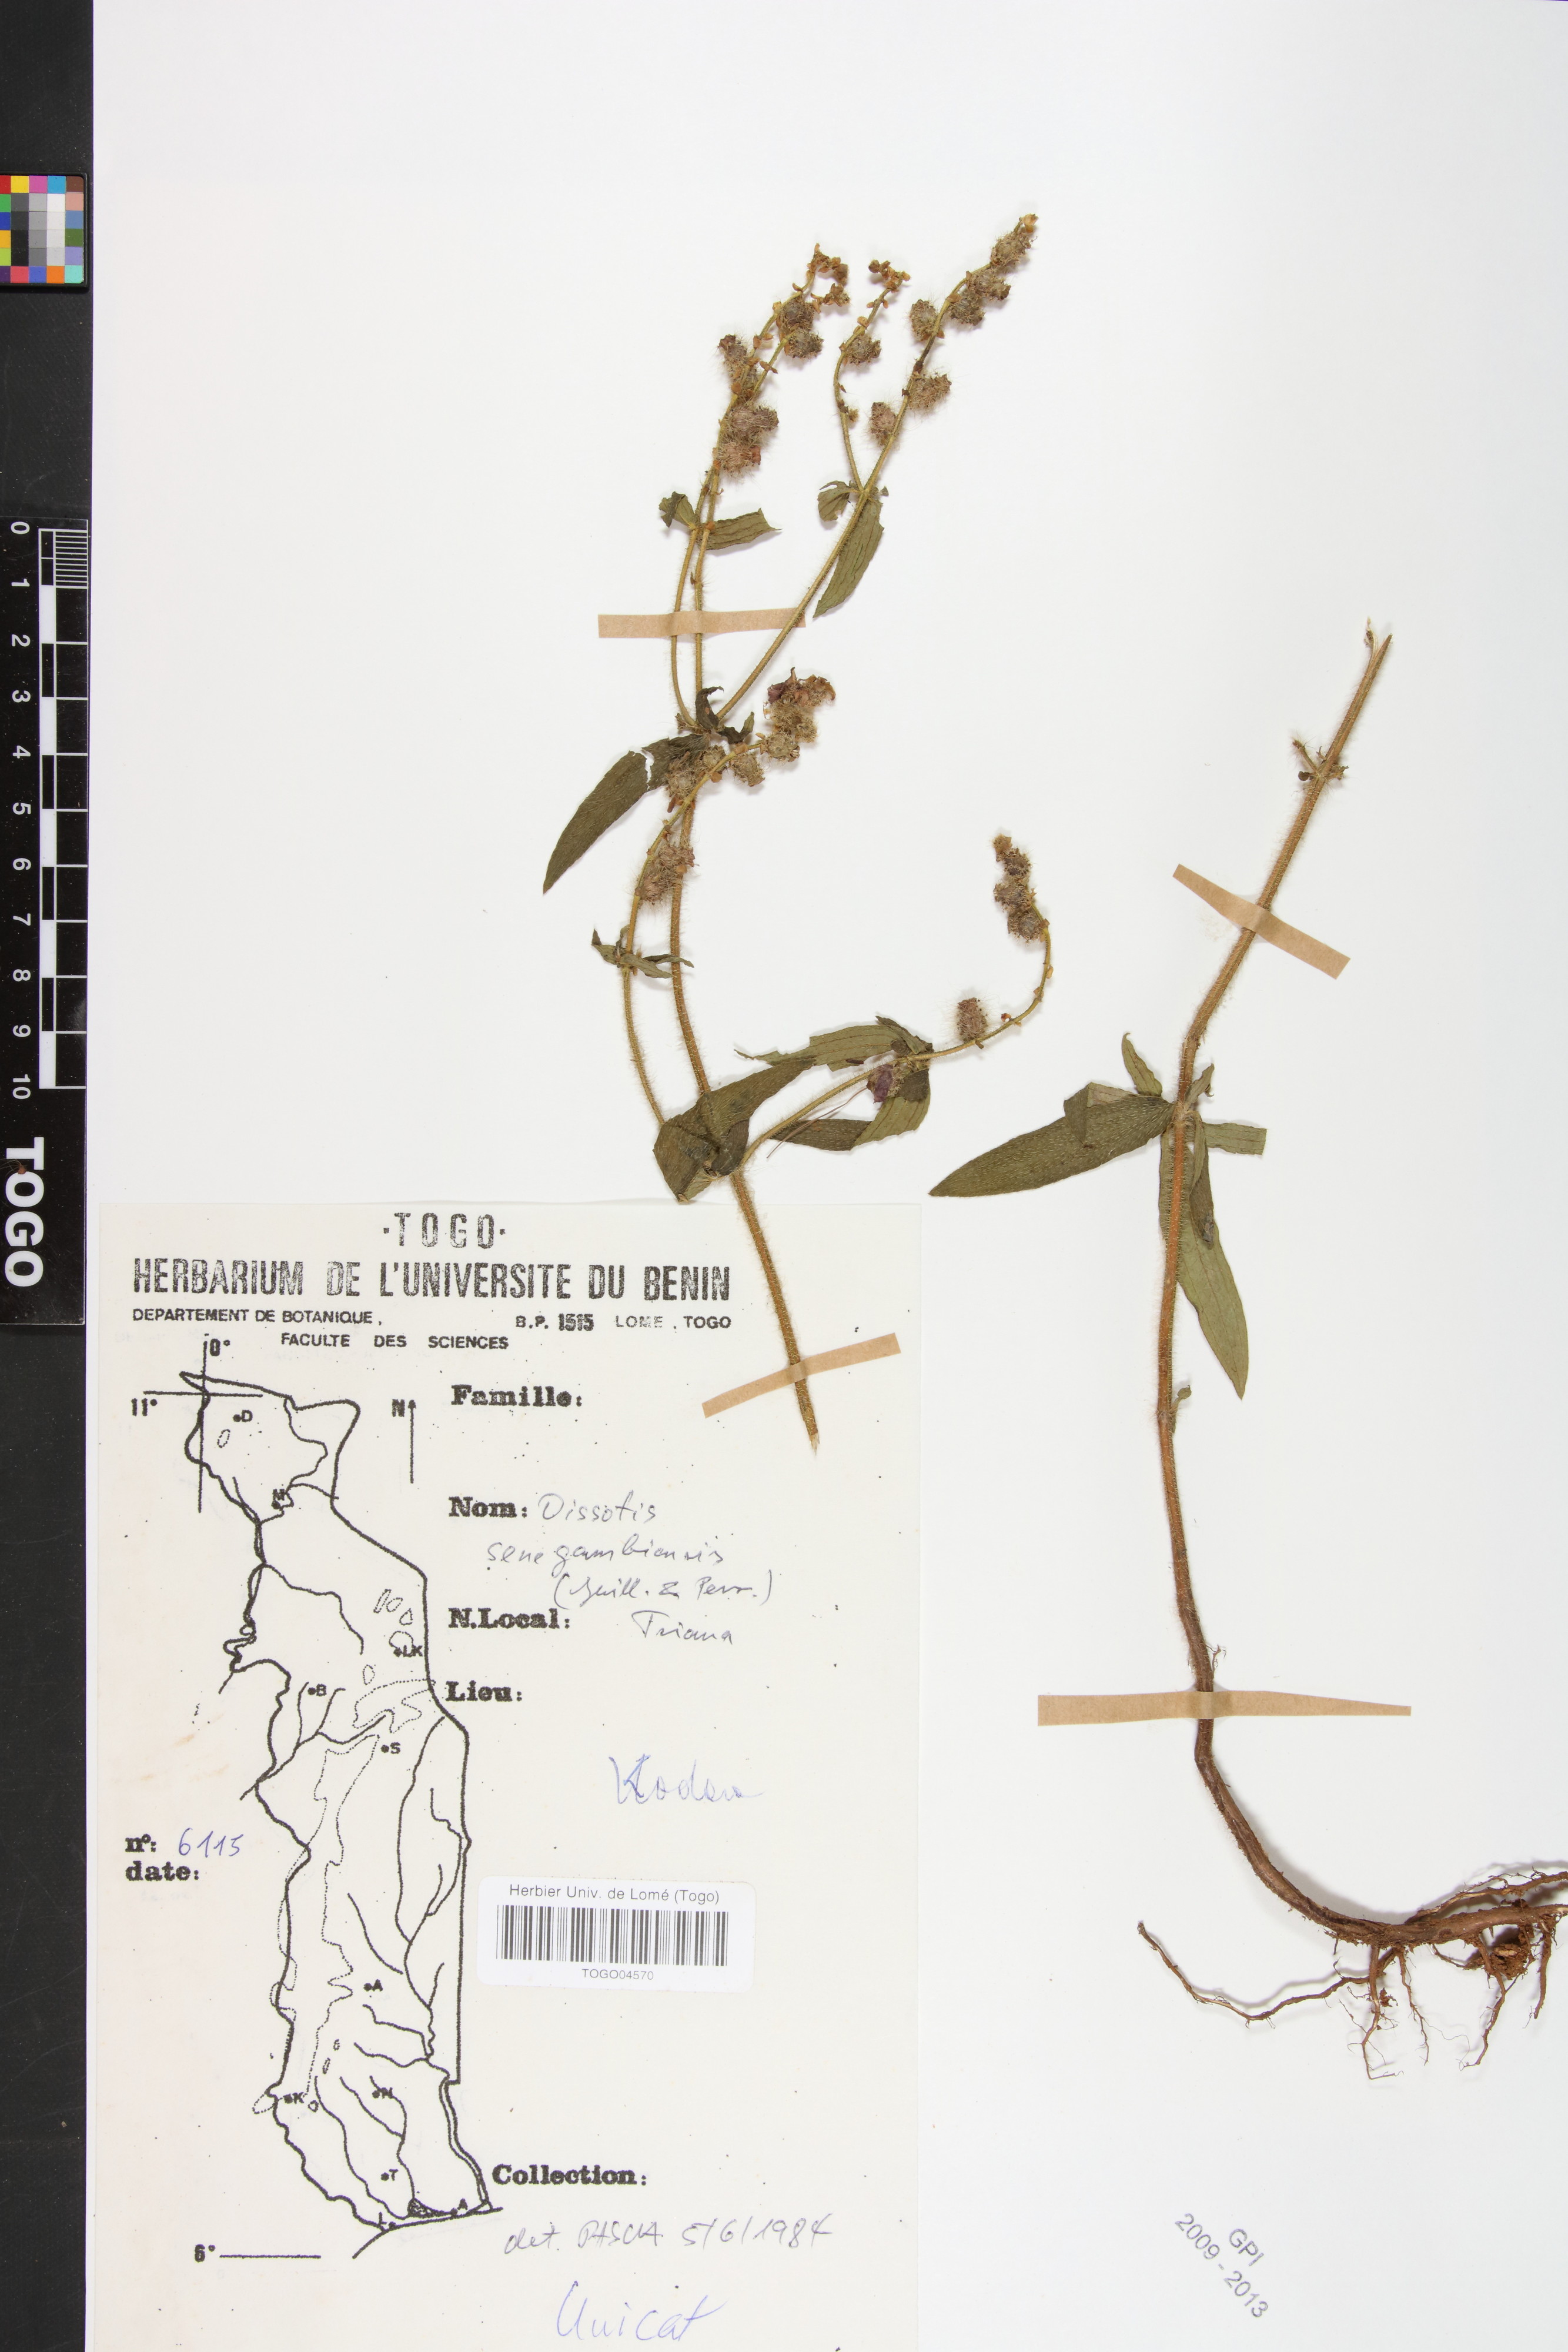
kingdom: Plantae
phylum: Tracheophyta
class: Magnoliopsida
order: Myrtales
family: Melastomataceae
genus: Antherotoma
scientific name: Antherotoma irvingiana
